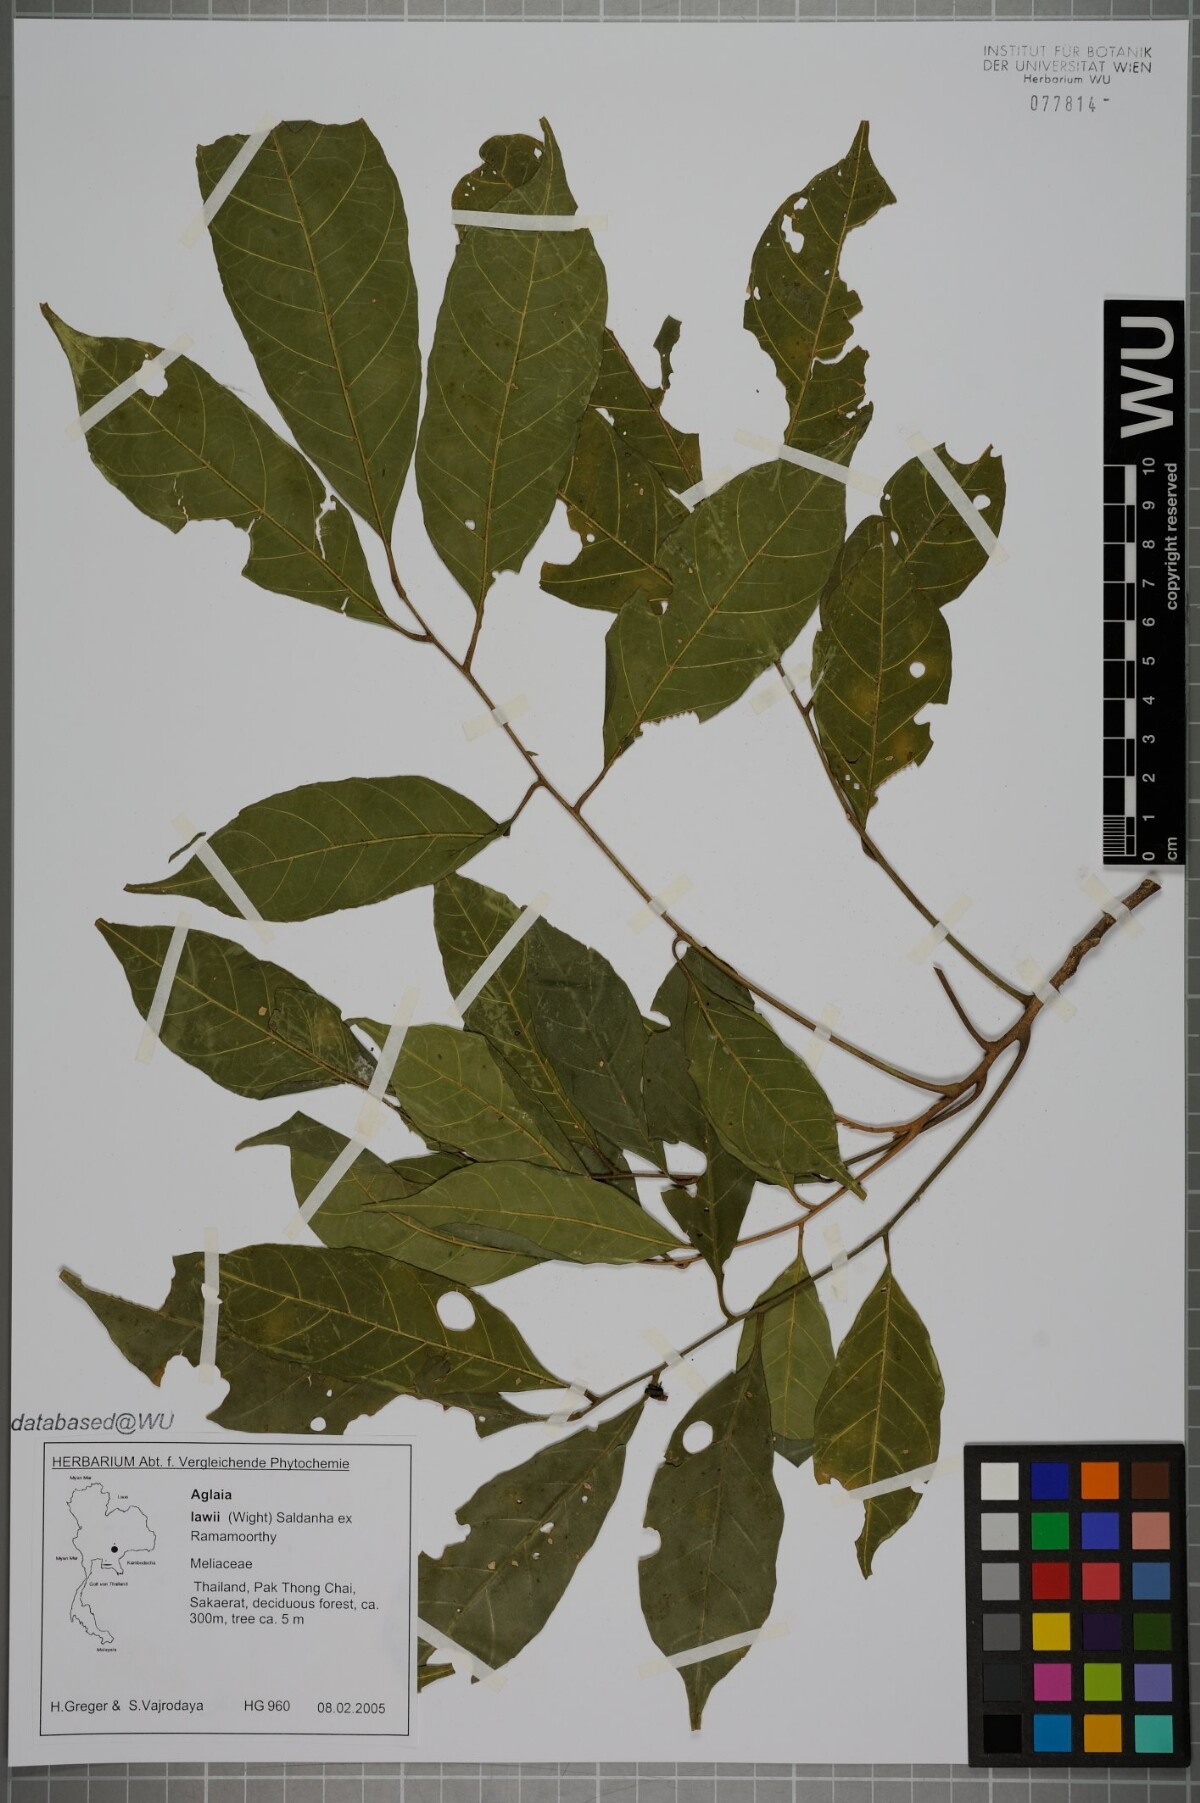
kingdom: Plantae
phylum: Tracheophyta
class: Magnoliopsida
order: Sapindales
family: Meliaceae
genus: Aglaia
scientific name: Aglaia lawii
